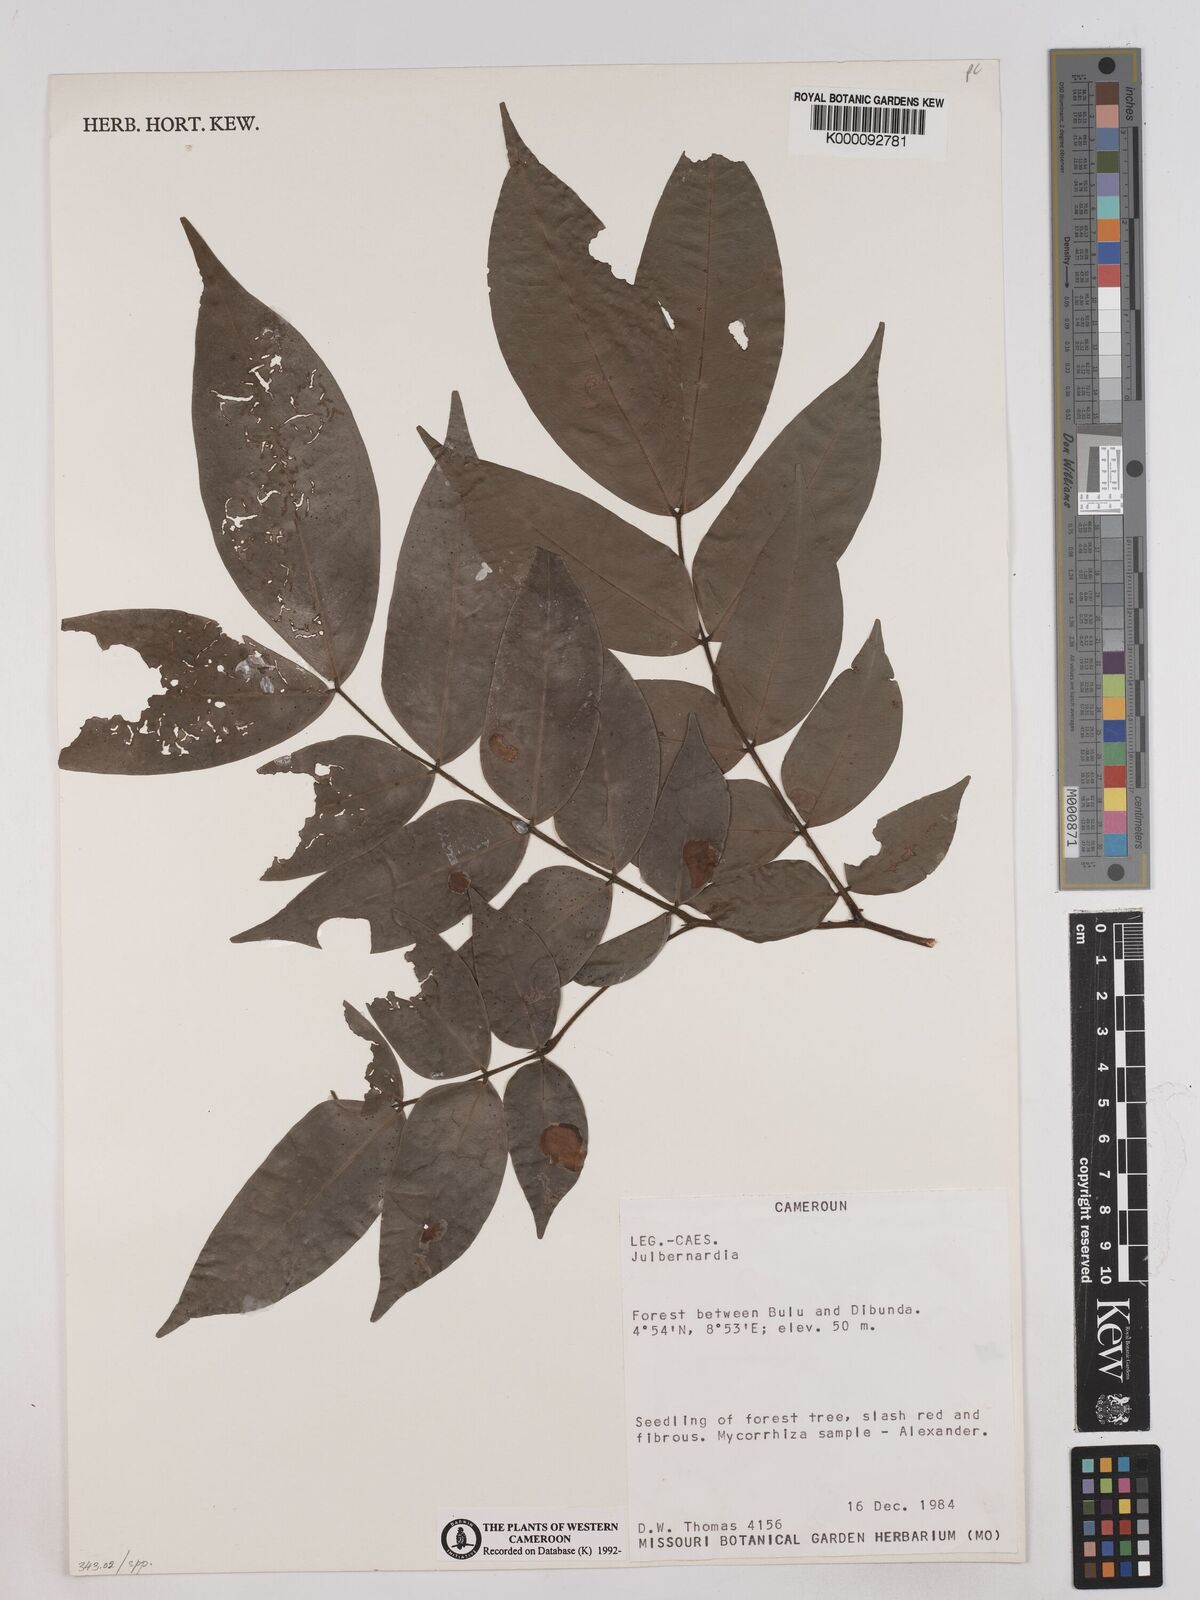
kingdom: Plantae
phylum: Tracheophyta
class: Magnoliopsida
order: Fabales
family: Fabaceae
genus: Julbernardia
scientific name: Julbernardia
